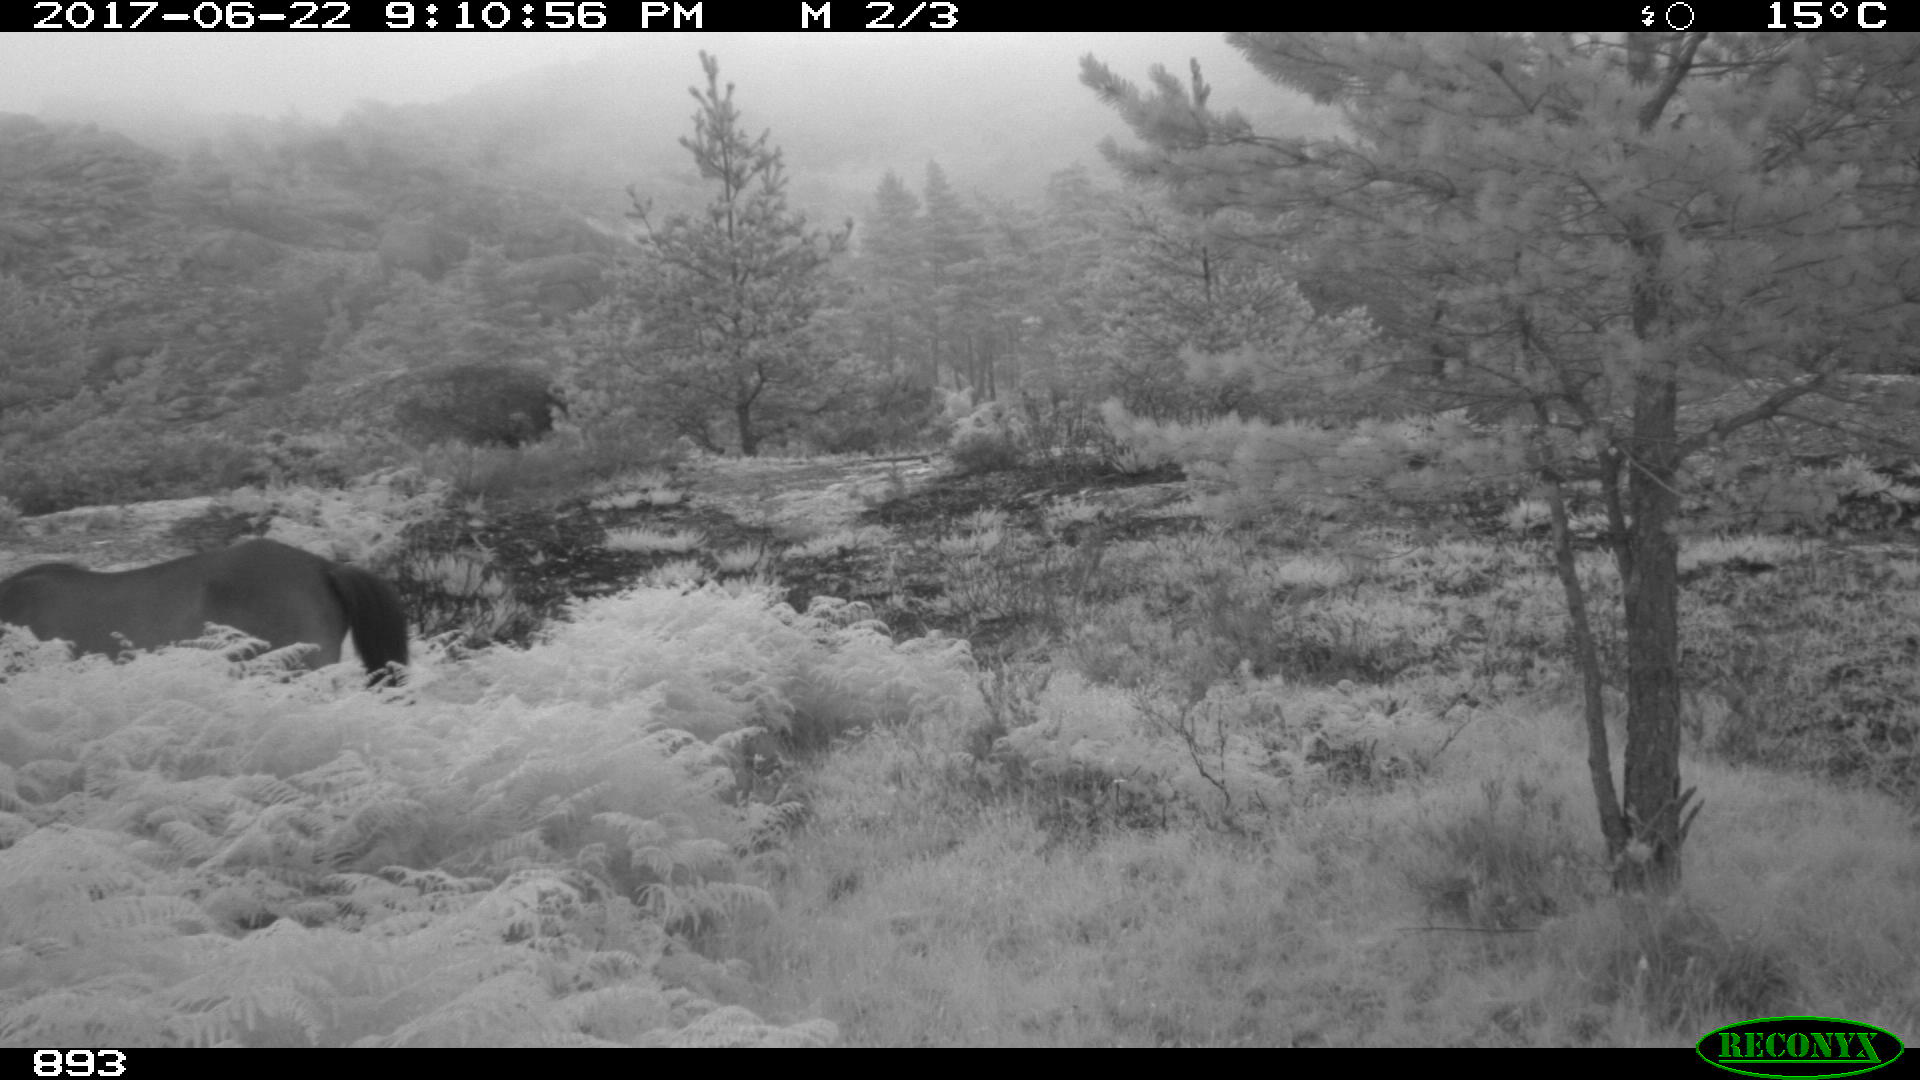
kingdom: Animalia
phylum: Chordata
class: Mammalia
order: Perissodactyla
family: Equidae
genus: Equus
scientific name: Equus caballus
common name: Horse
